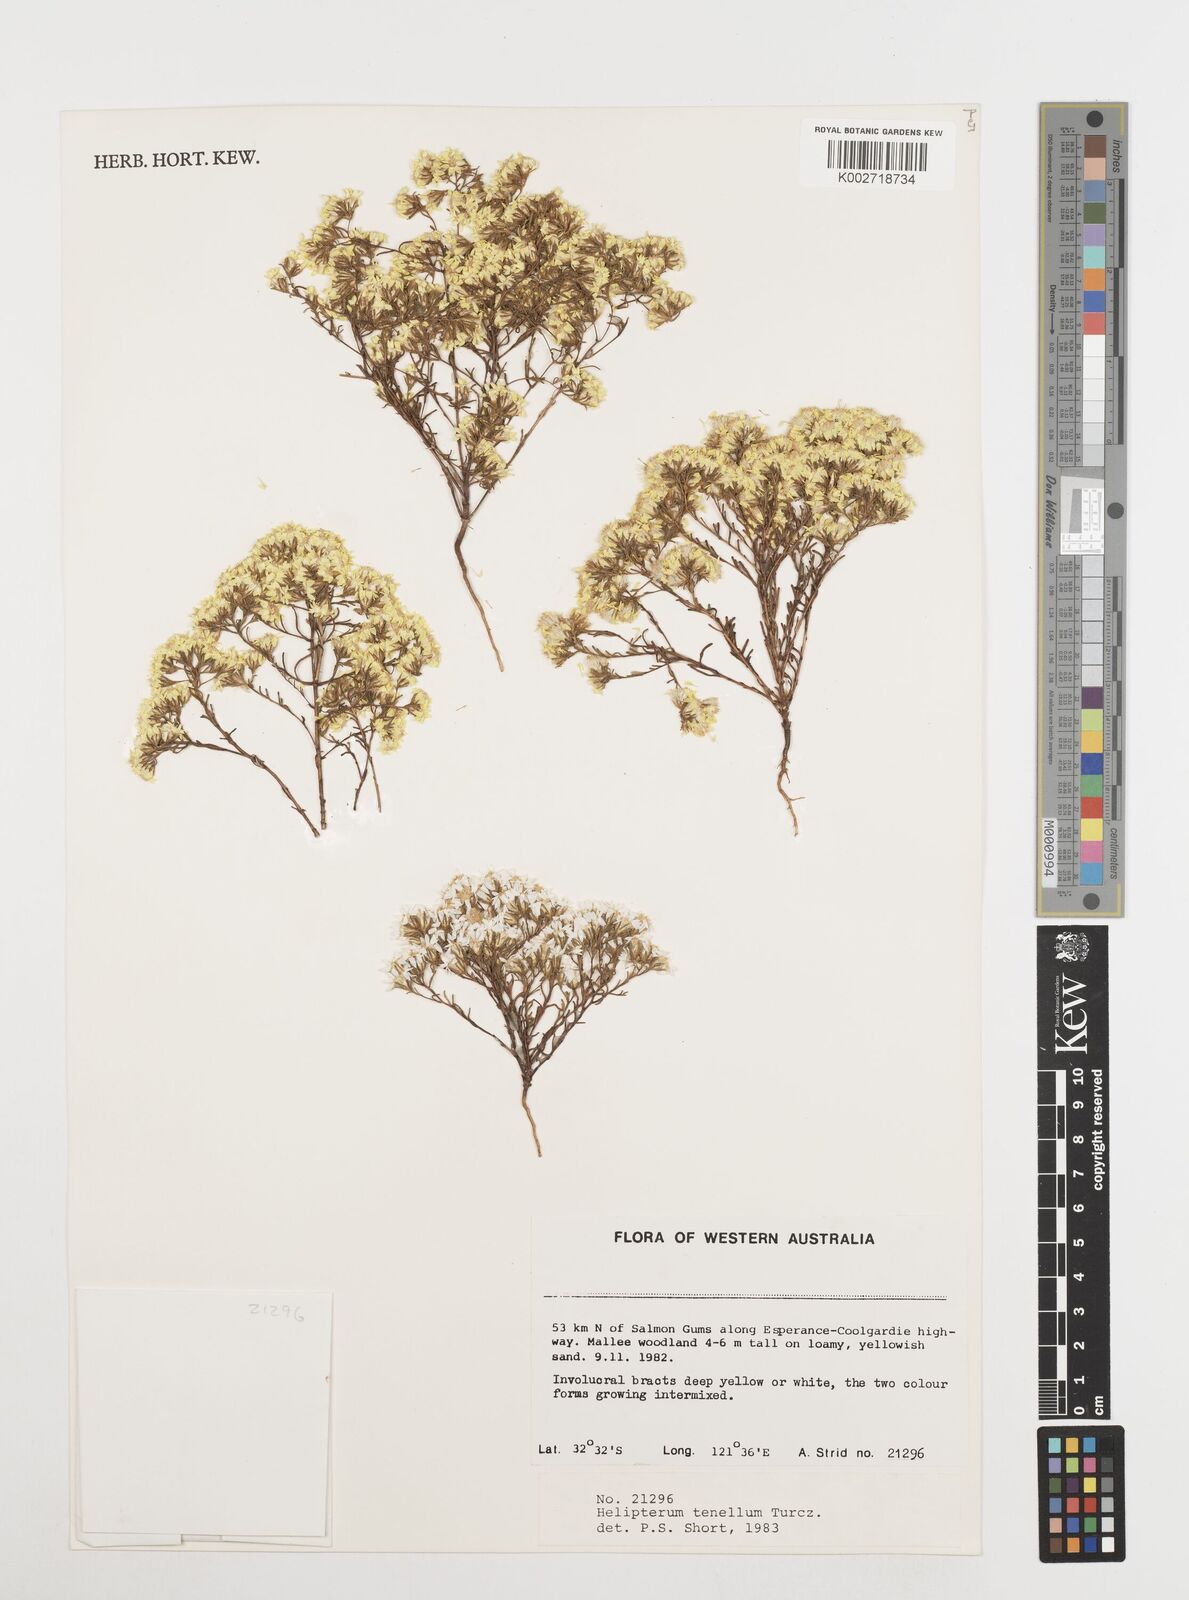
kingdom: Plantae
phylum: Tracheophyta
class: Magnoliopsida
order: Asterales
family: Asteraceae
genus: Erymophyllum
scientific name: Erymophyllum tenellum
